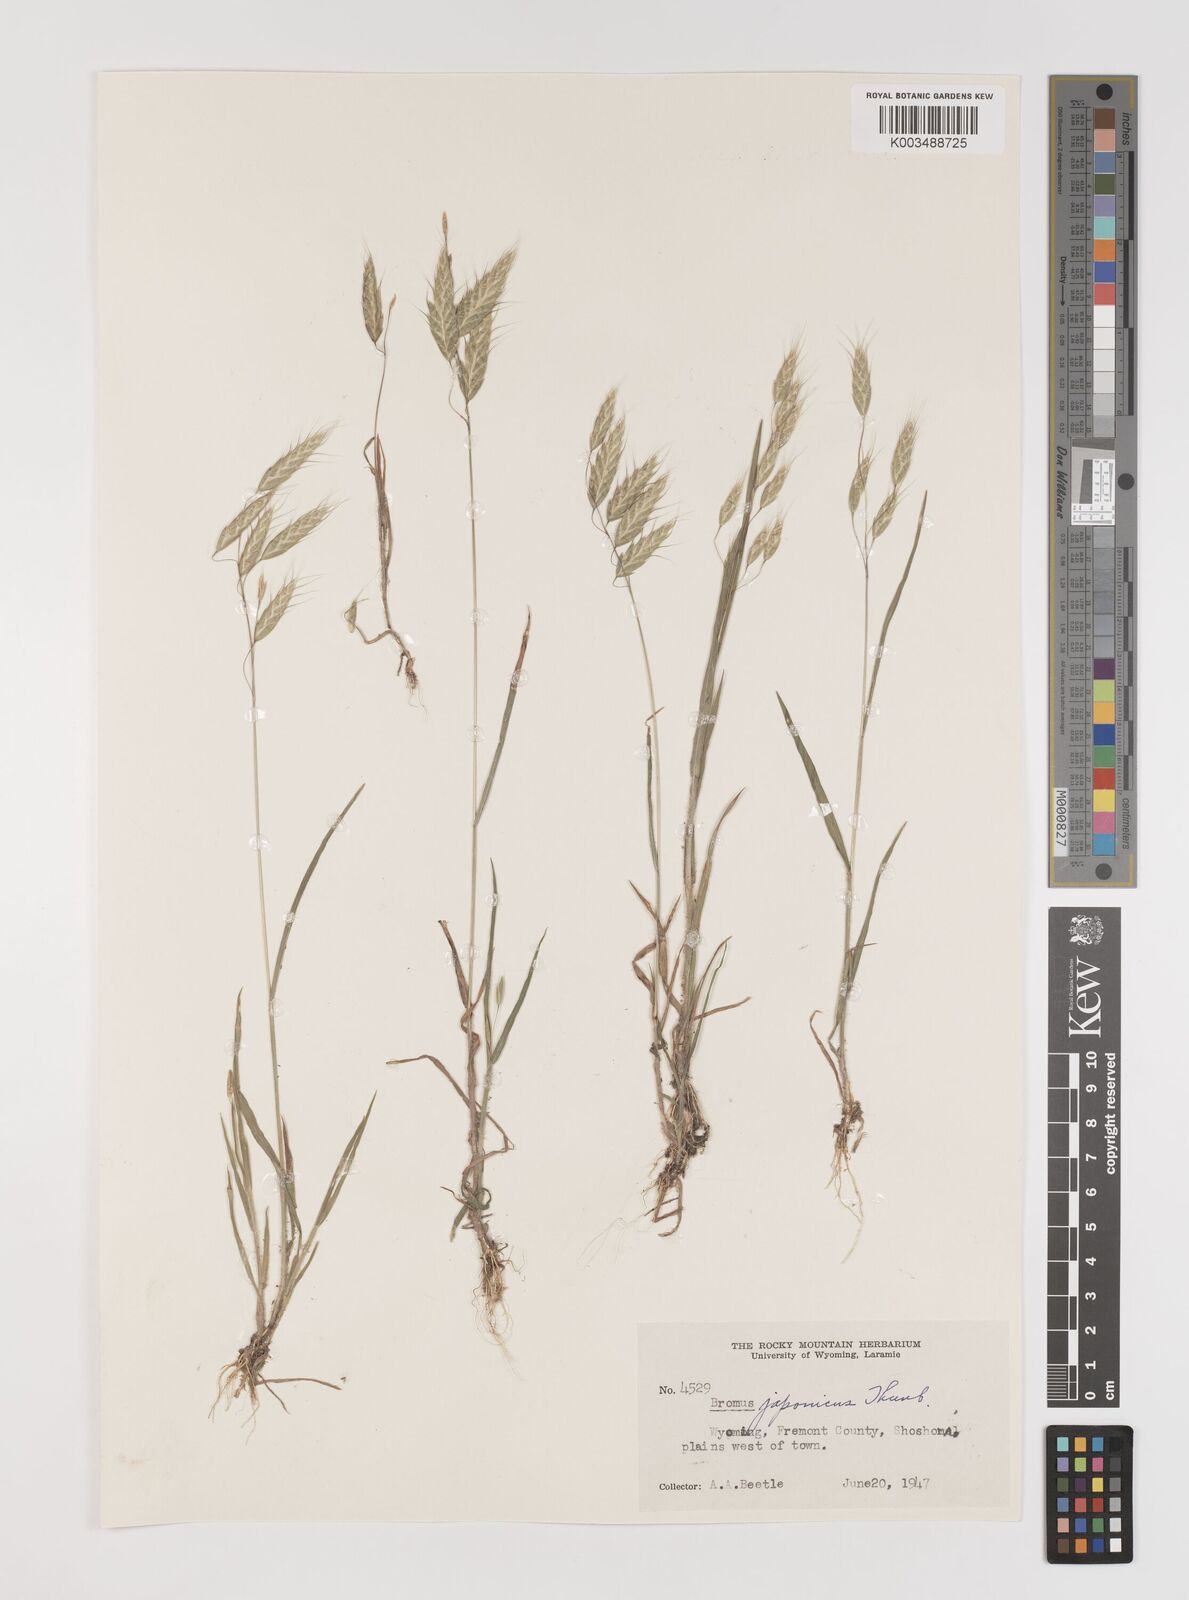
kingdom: Plantae
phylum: Tracheophyta
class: Liliopsida
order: Poales
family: Poaceae
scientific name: Poaceae
